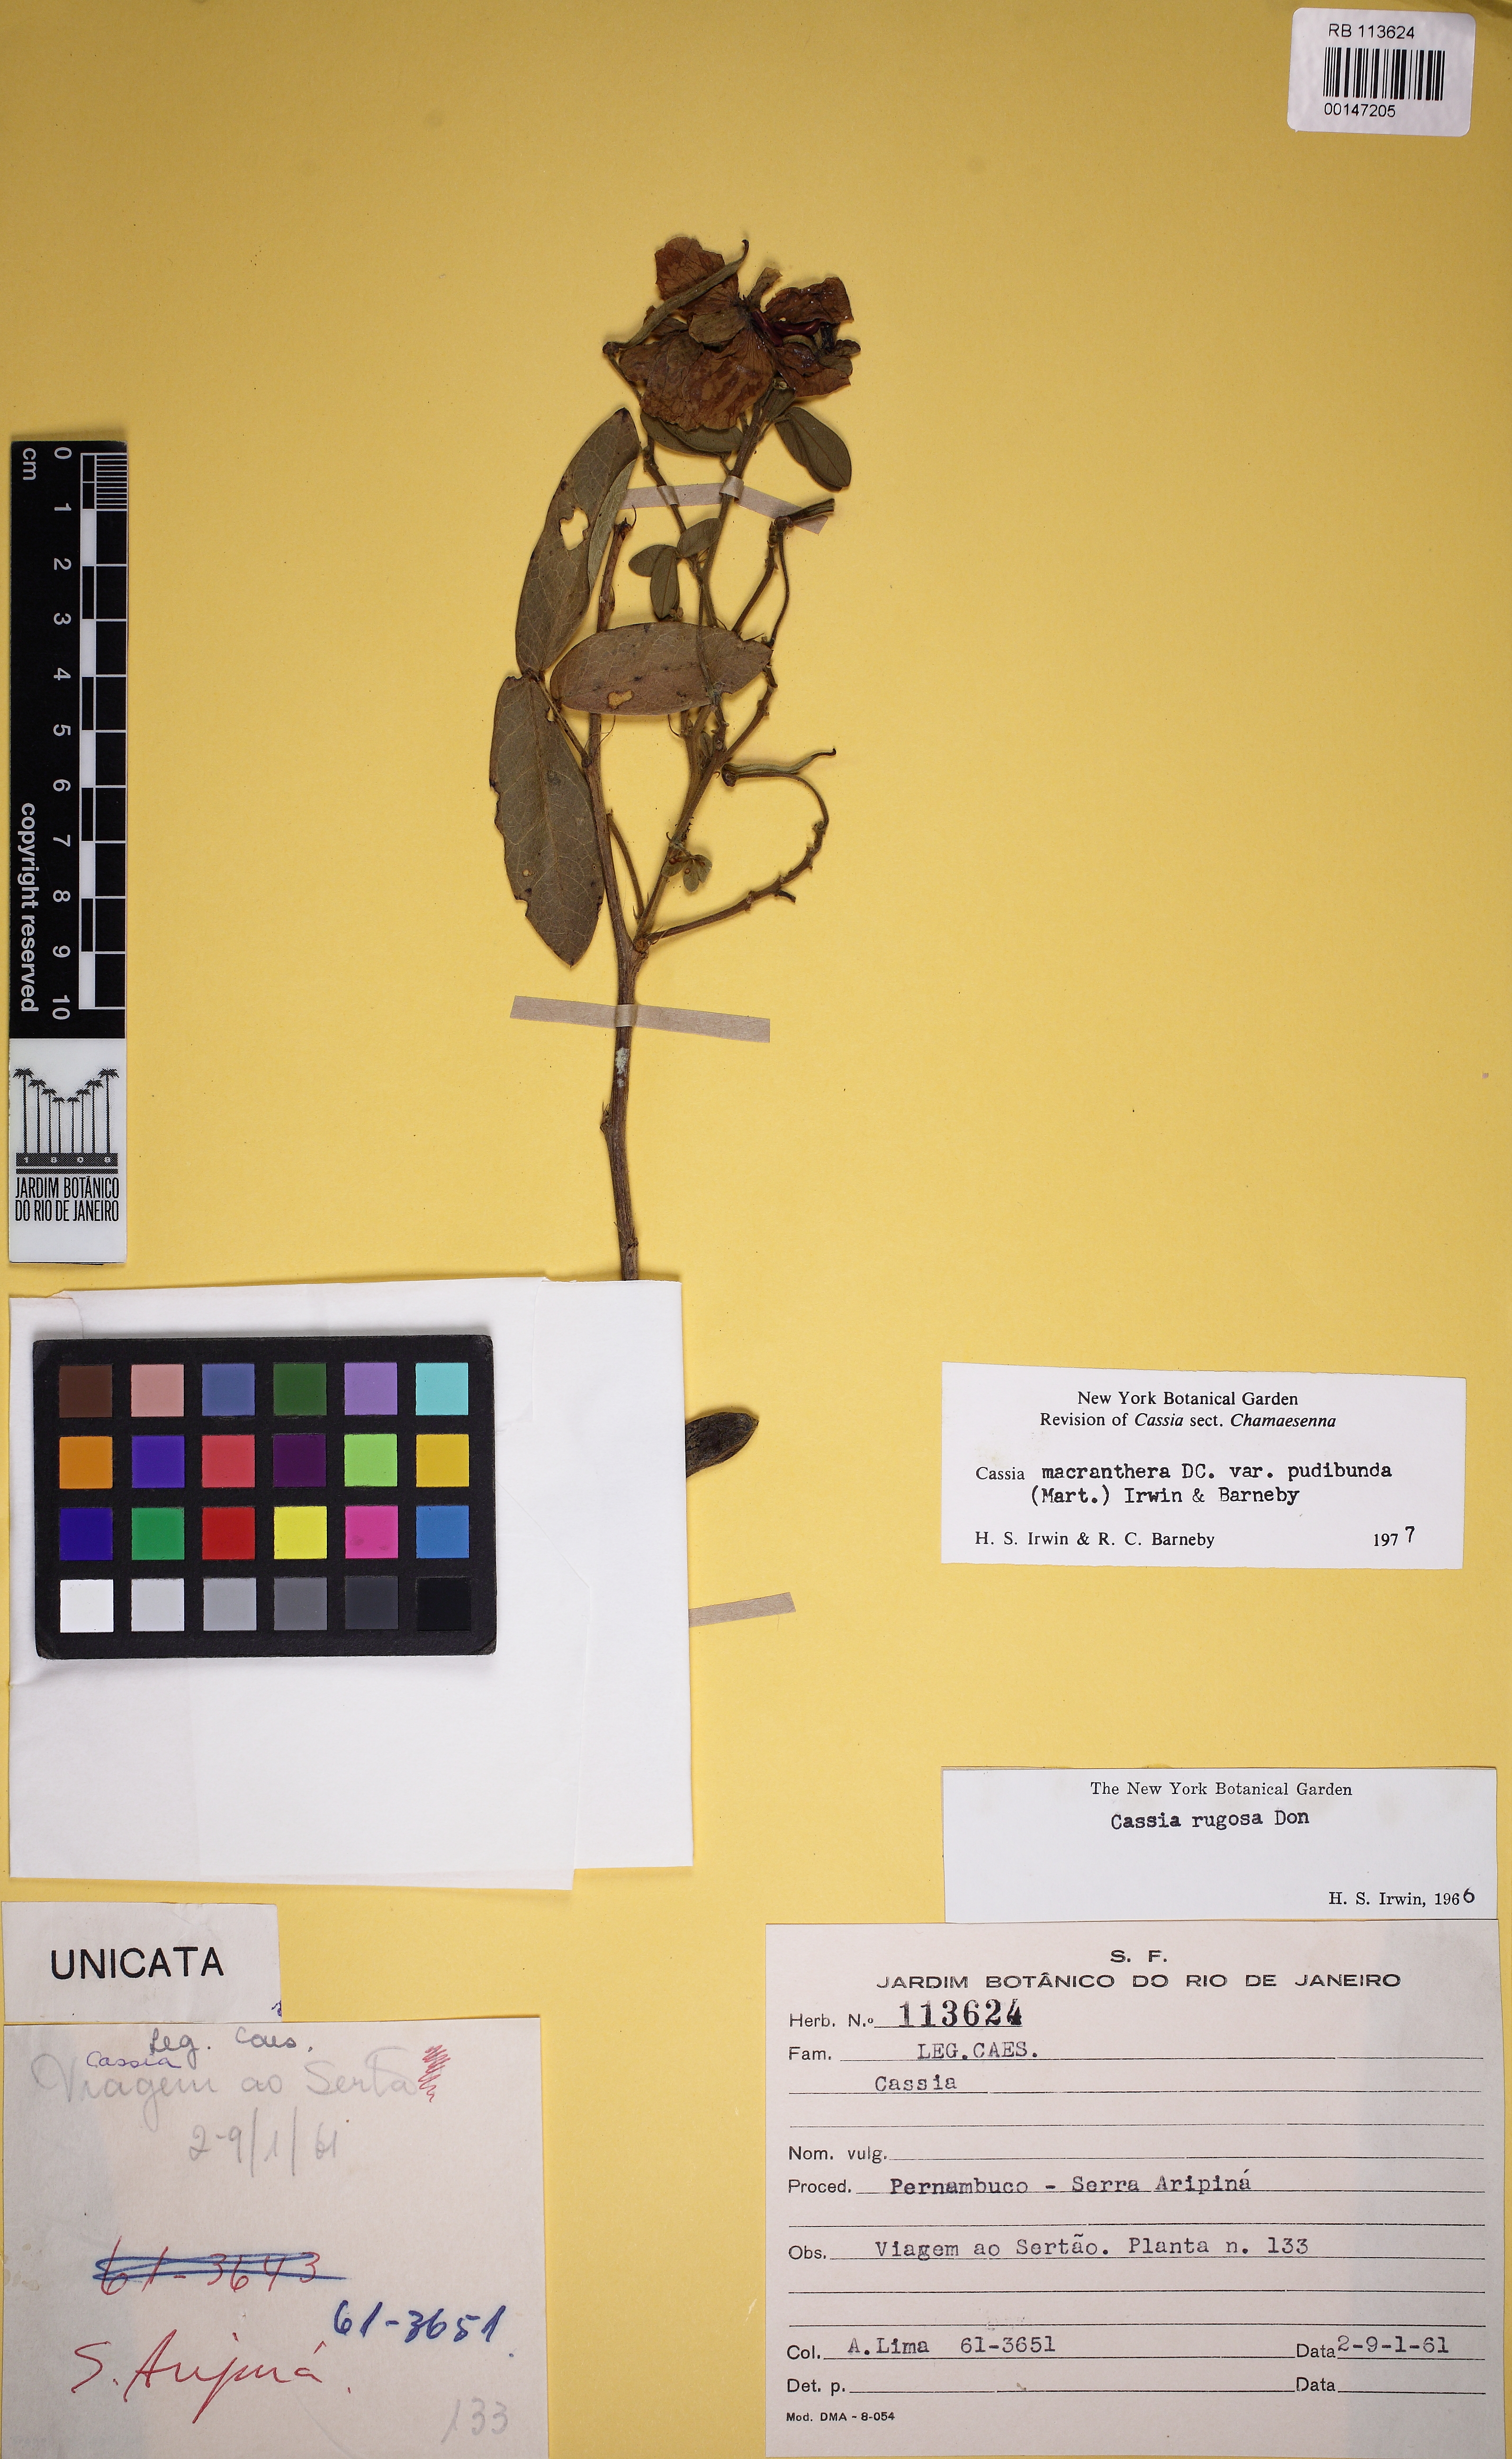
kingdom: Plantae
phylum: Tracheophyta
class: Magnoliopsida
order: Fabales
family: Fabaceae
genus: Senna
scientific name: Senna macranthera
